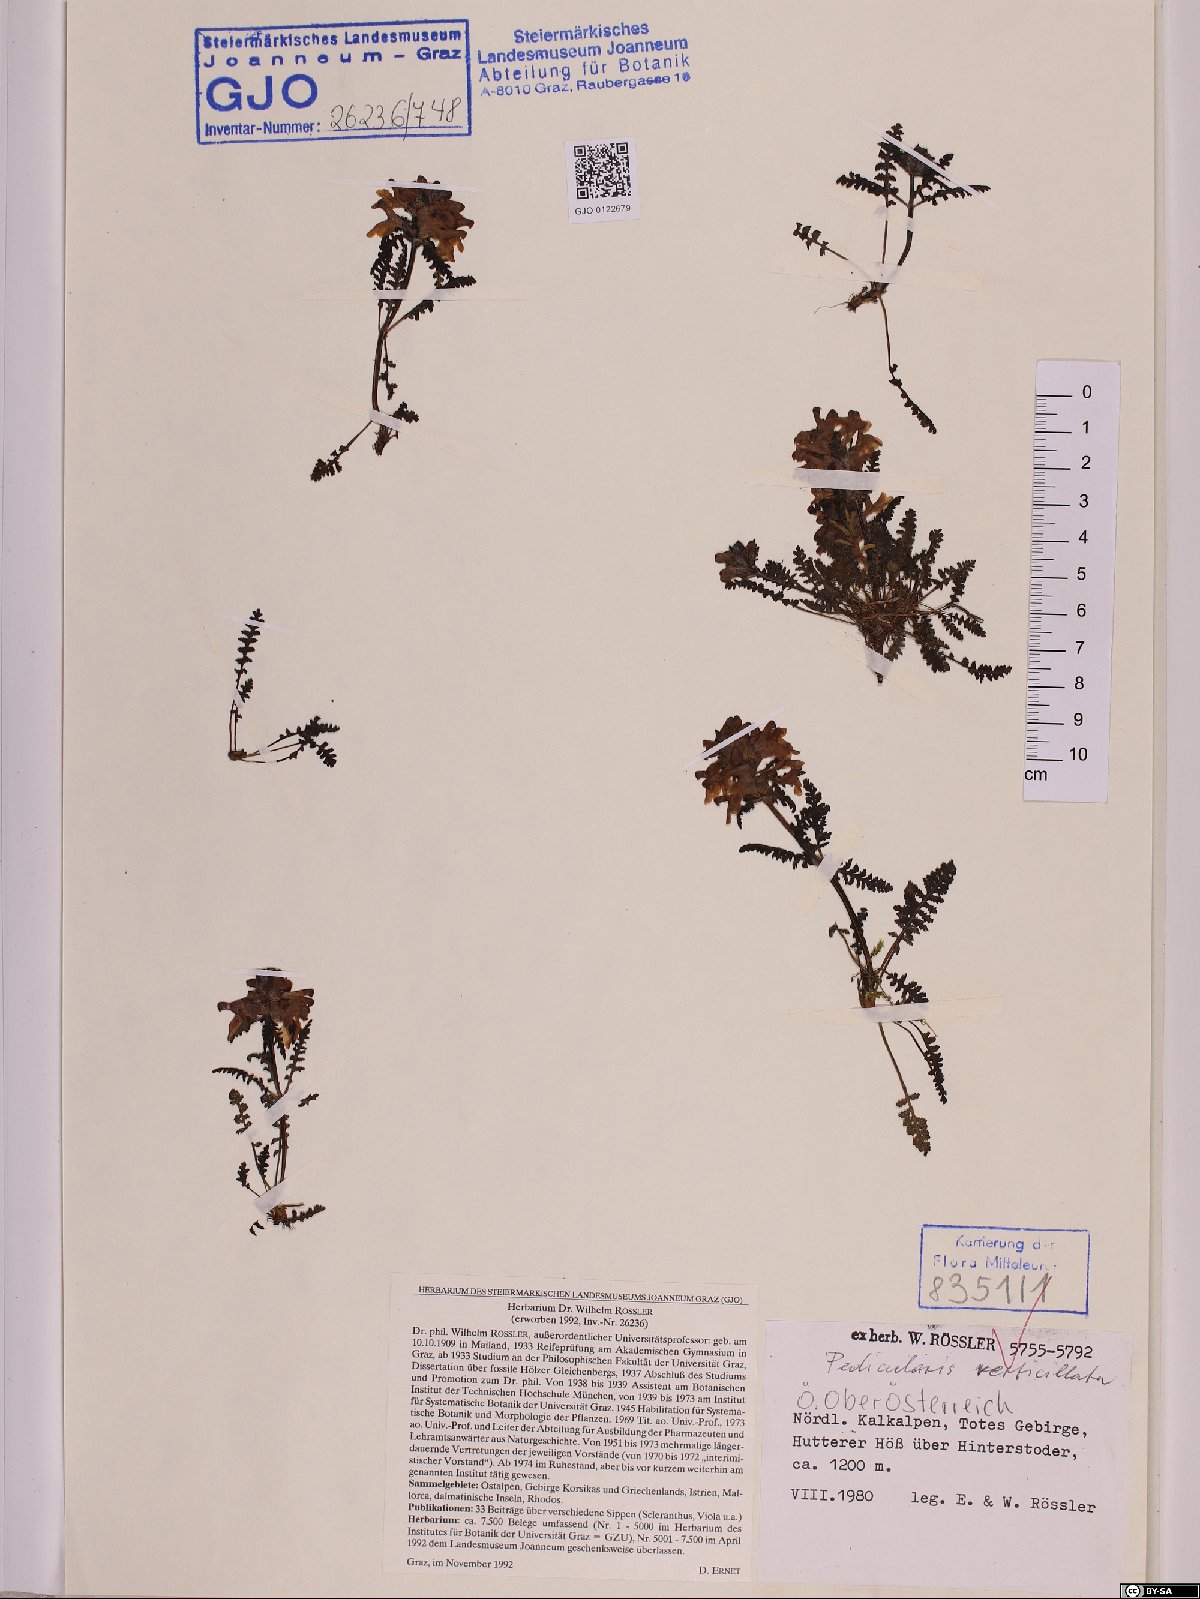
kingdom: Plantae
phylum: Tracheophyta
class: Magnoliopsida
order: Lamiales
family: Orobanchaceae
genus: Pedicularis
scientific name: Pedicularis verticillata
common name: Whorled lousewort
